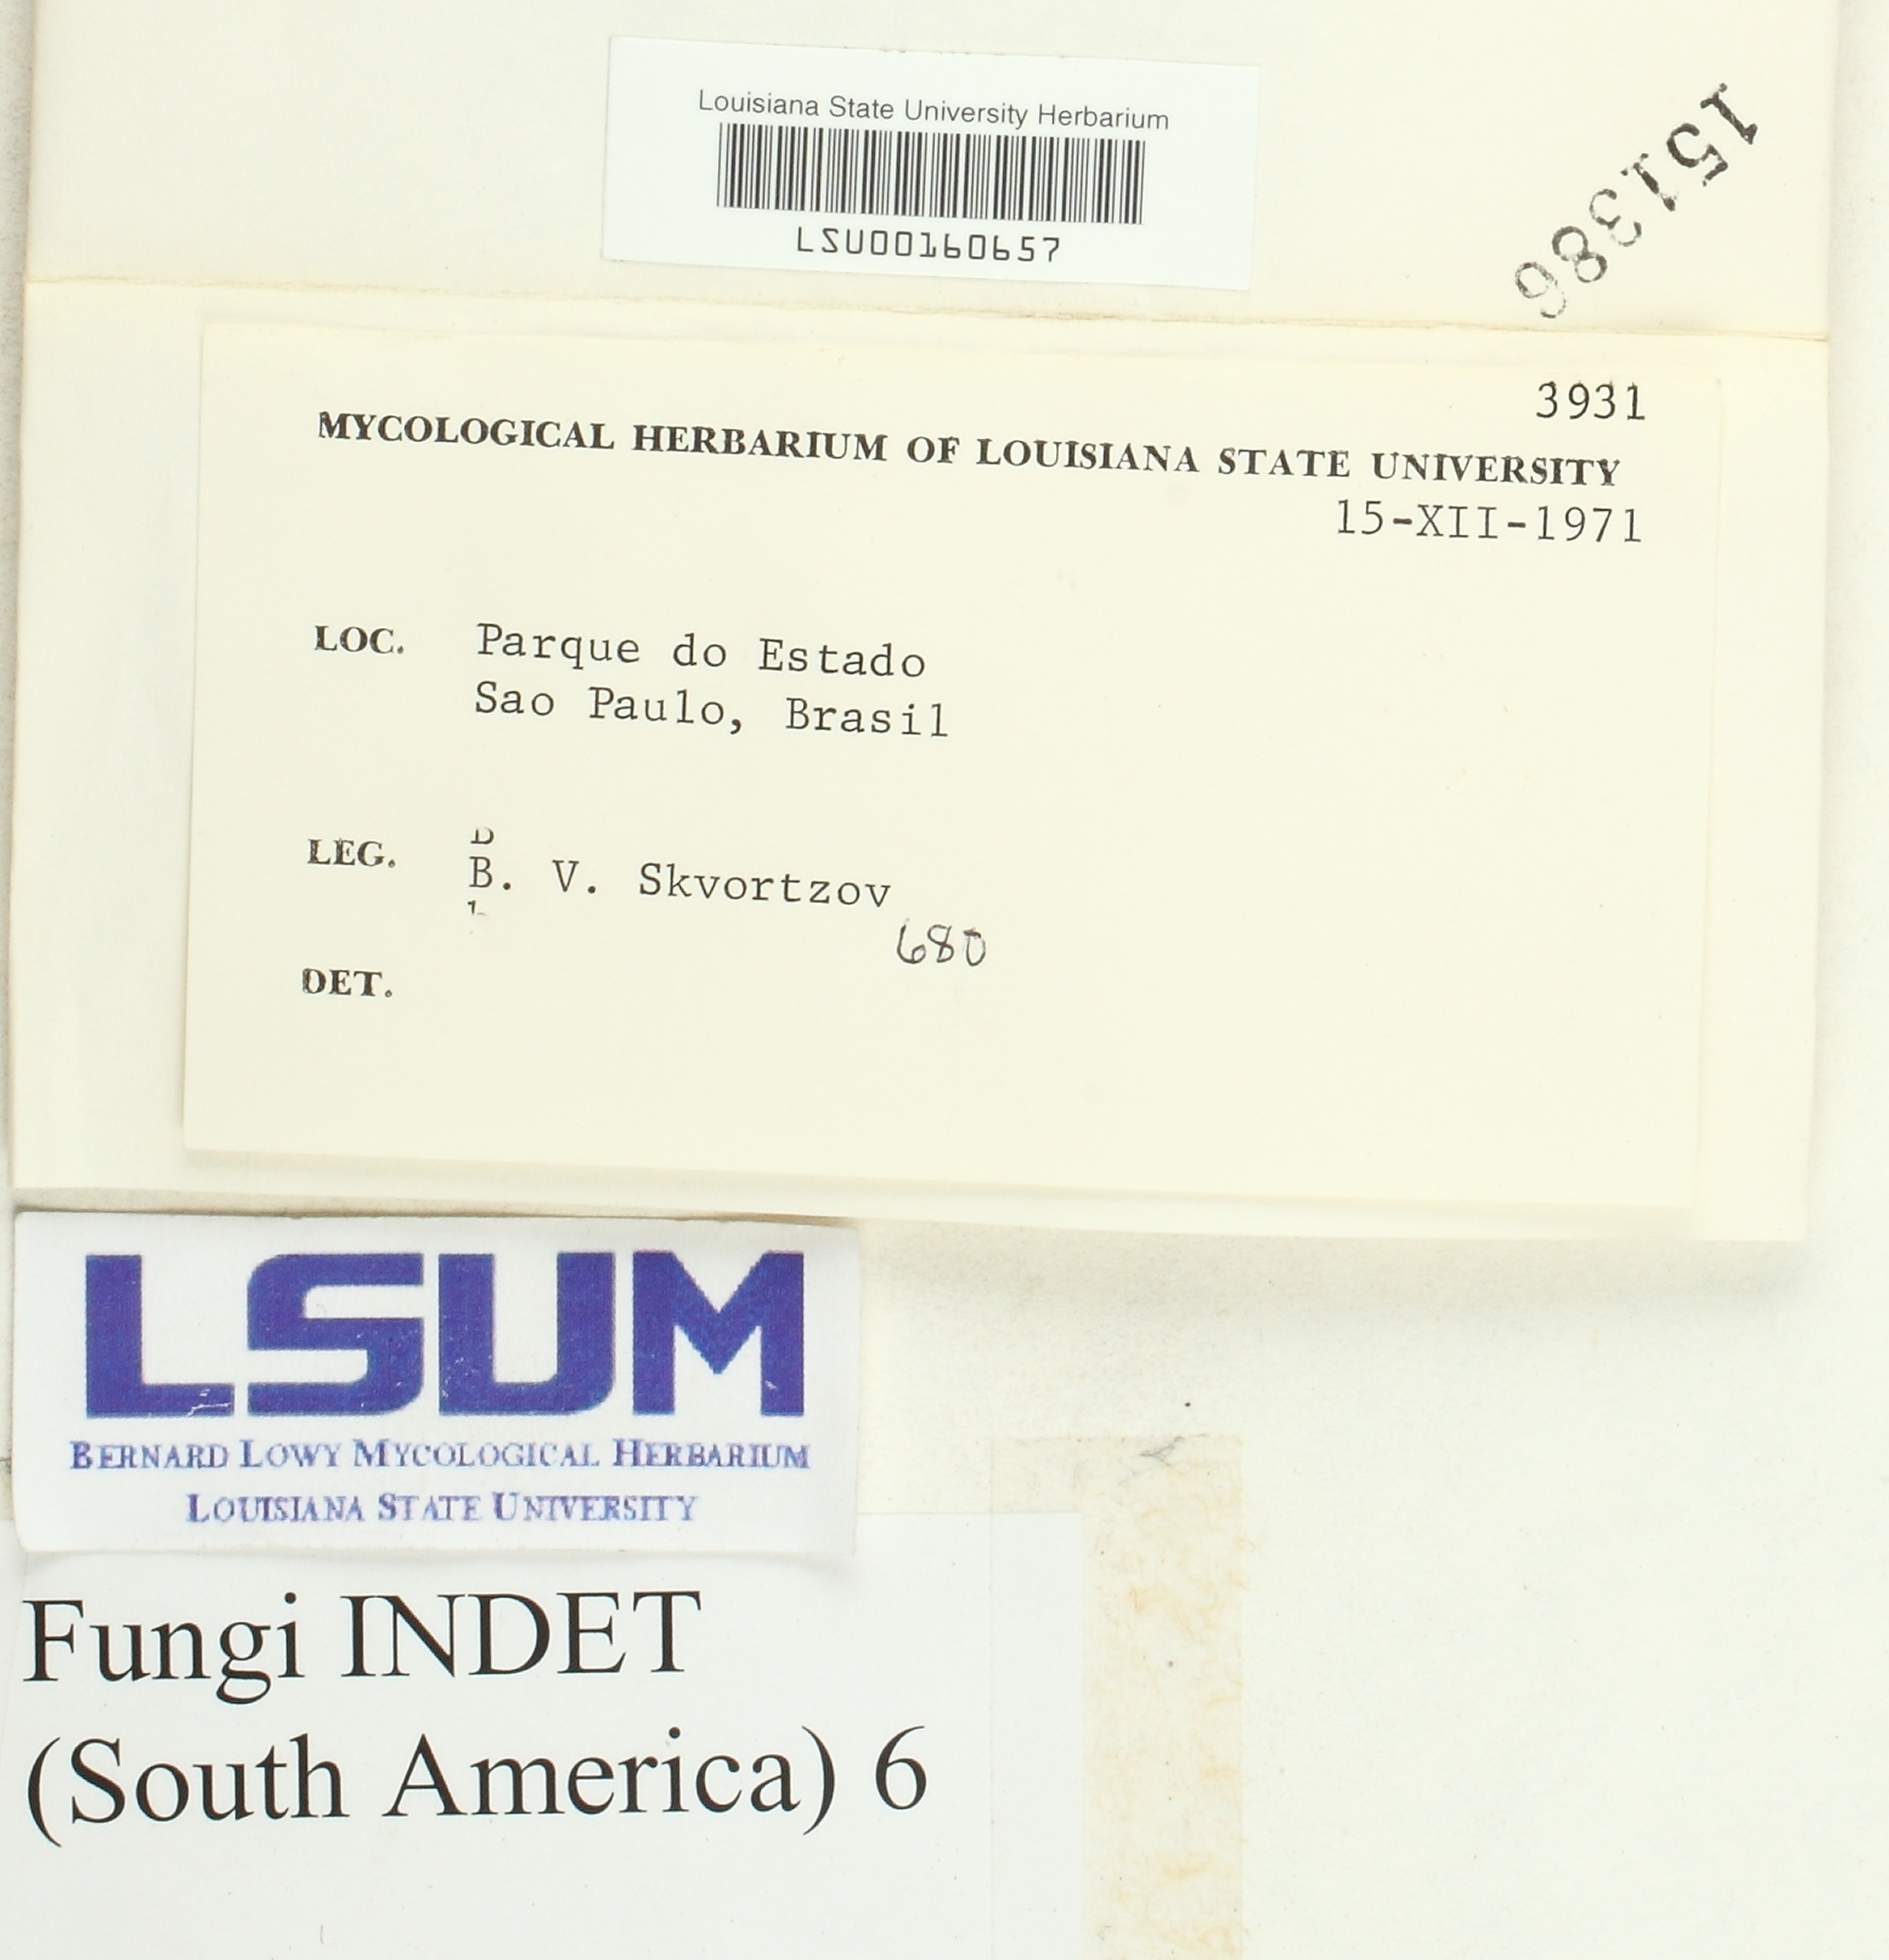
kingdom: Fungi
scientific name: Fungi
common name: Fungi
